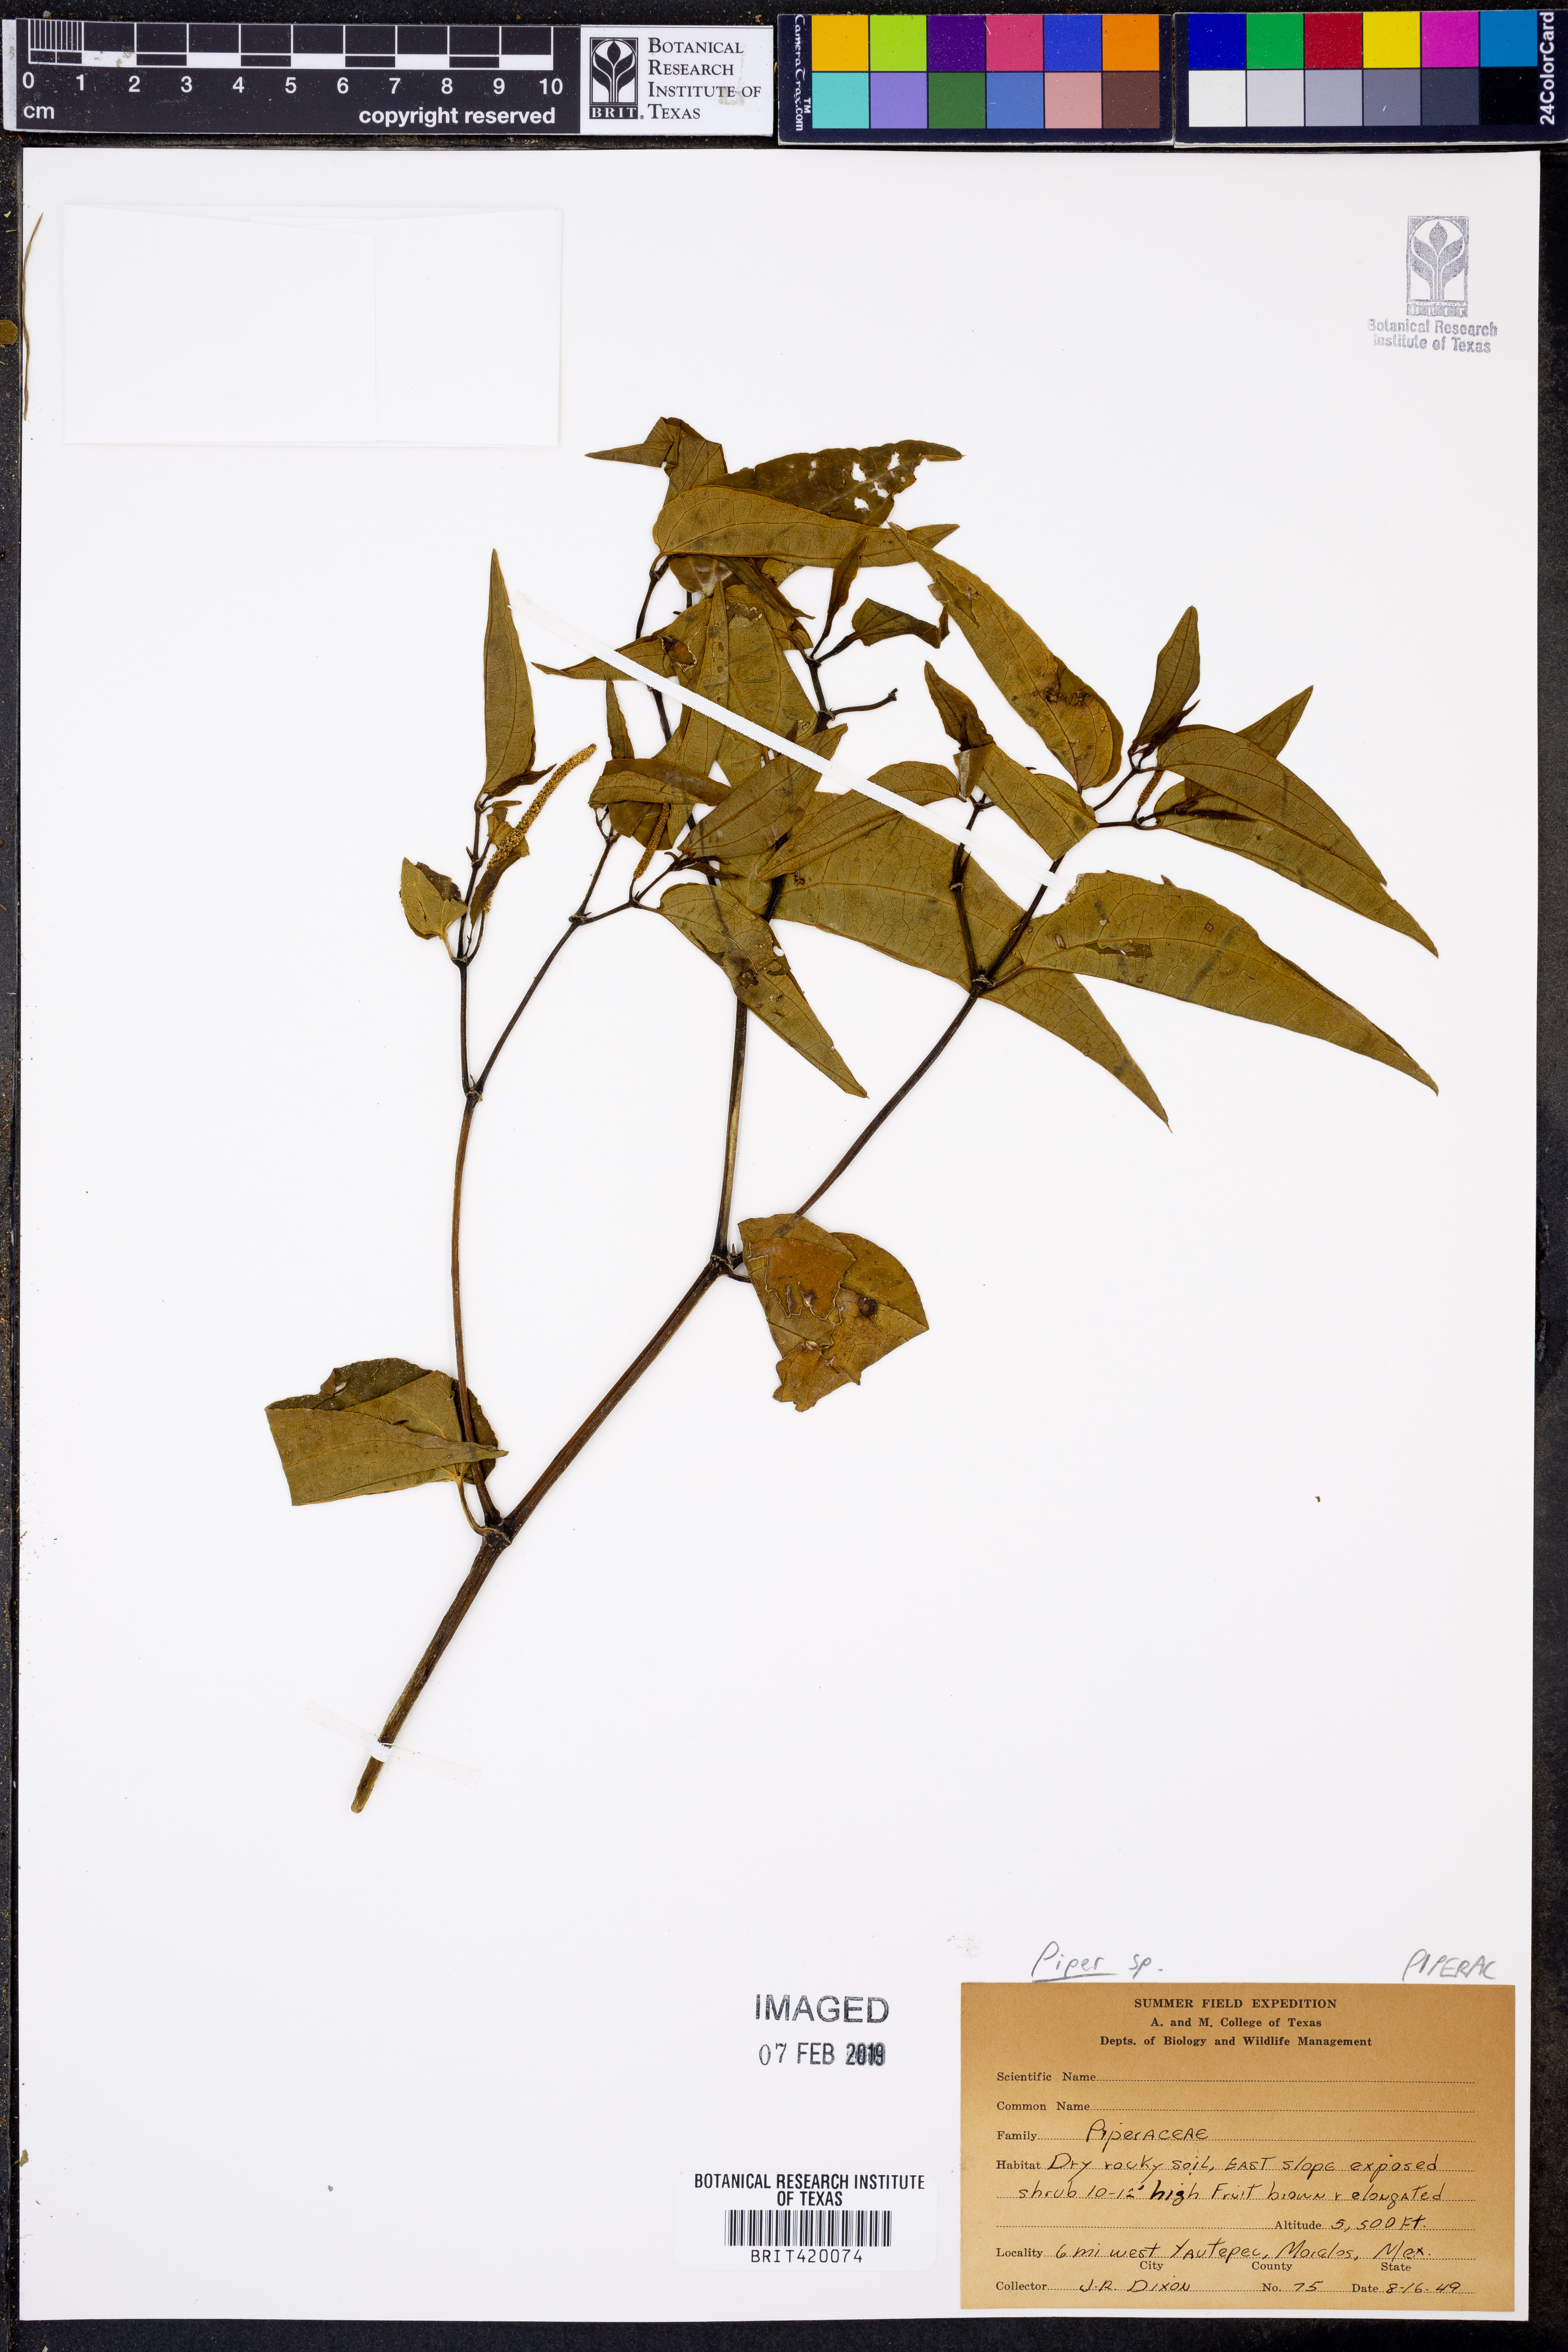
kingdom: Plantae
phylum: Tracheophyta
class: Magnoliopsida
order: Piperales
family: Piperaceae
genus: Piper
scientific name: Piper
